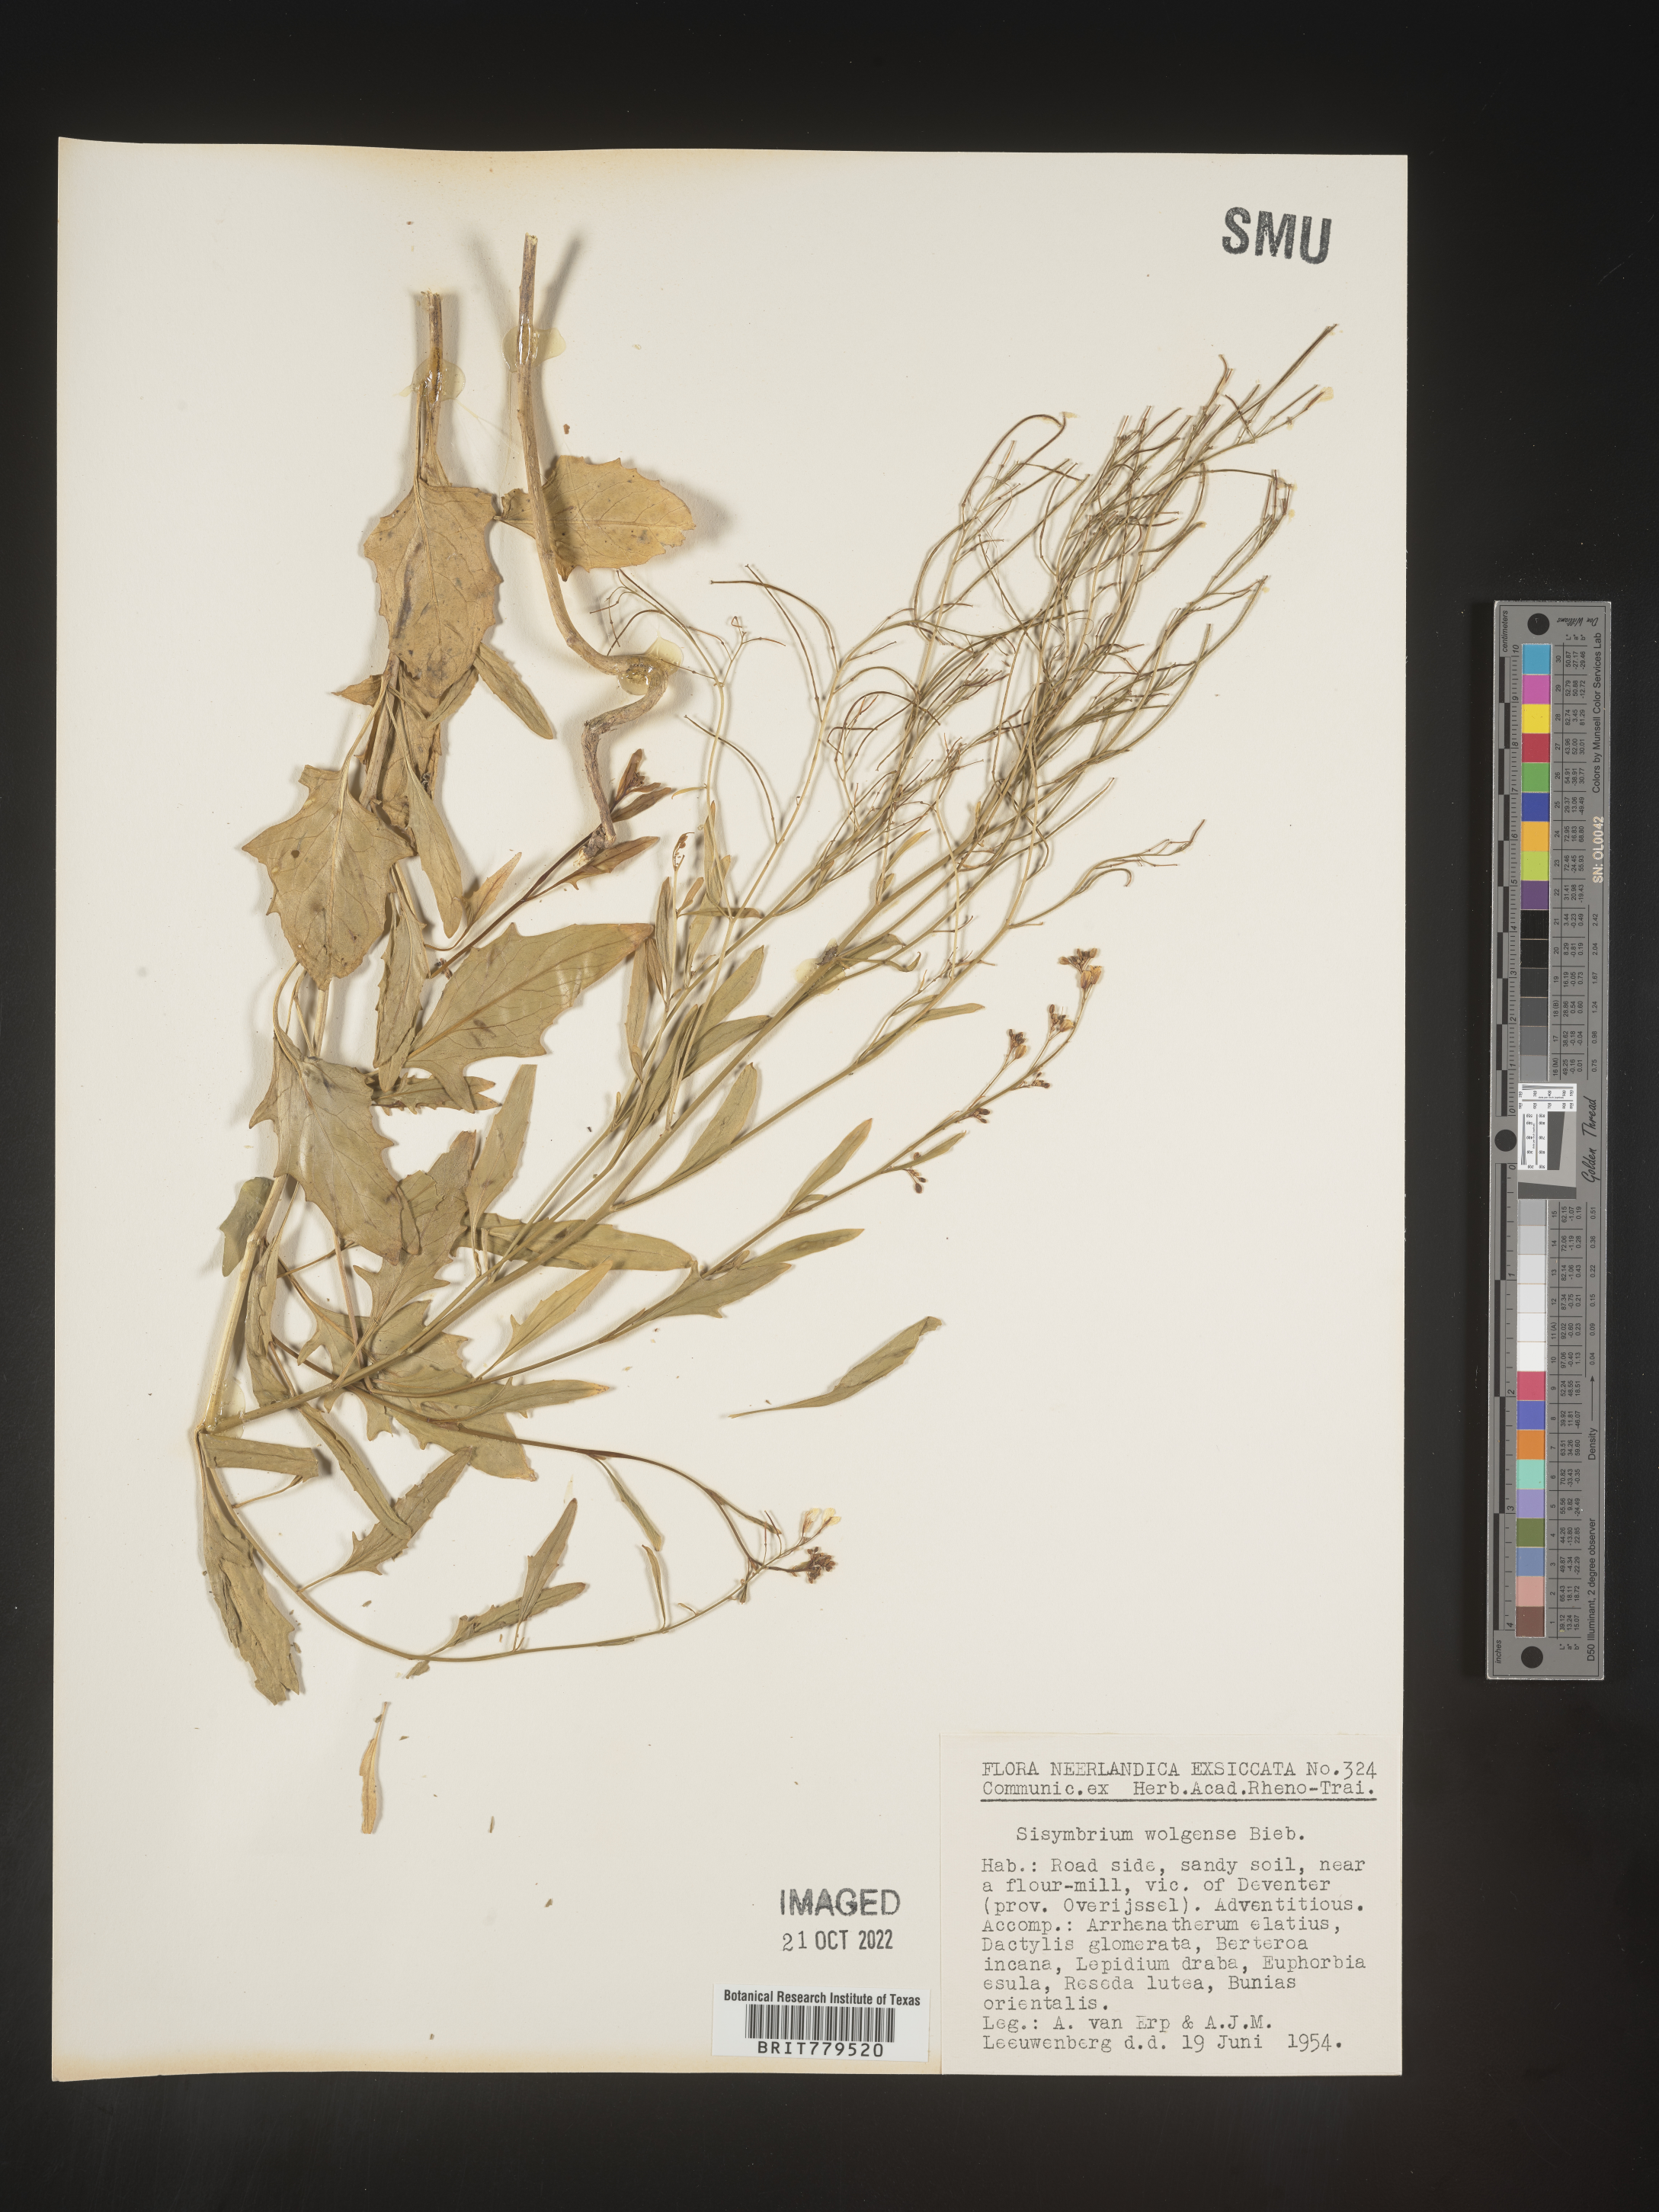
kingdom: Plantae
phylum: Tracheophyta
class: Magnoliopsida
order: Brassicales
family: Brassicaceae
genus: Sisymbrium
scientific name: Sisymbrium
